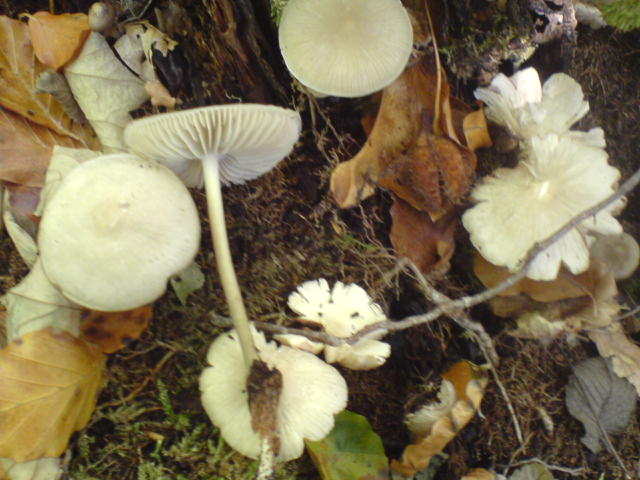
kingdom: Fungi
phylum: Basidiomycota
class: Agaricomycetes
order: Agaricales
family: Mycenaceae
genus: Mycena
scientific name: Mycena galericulata
